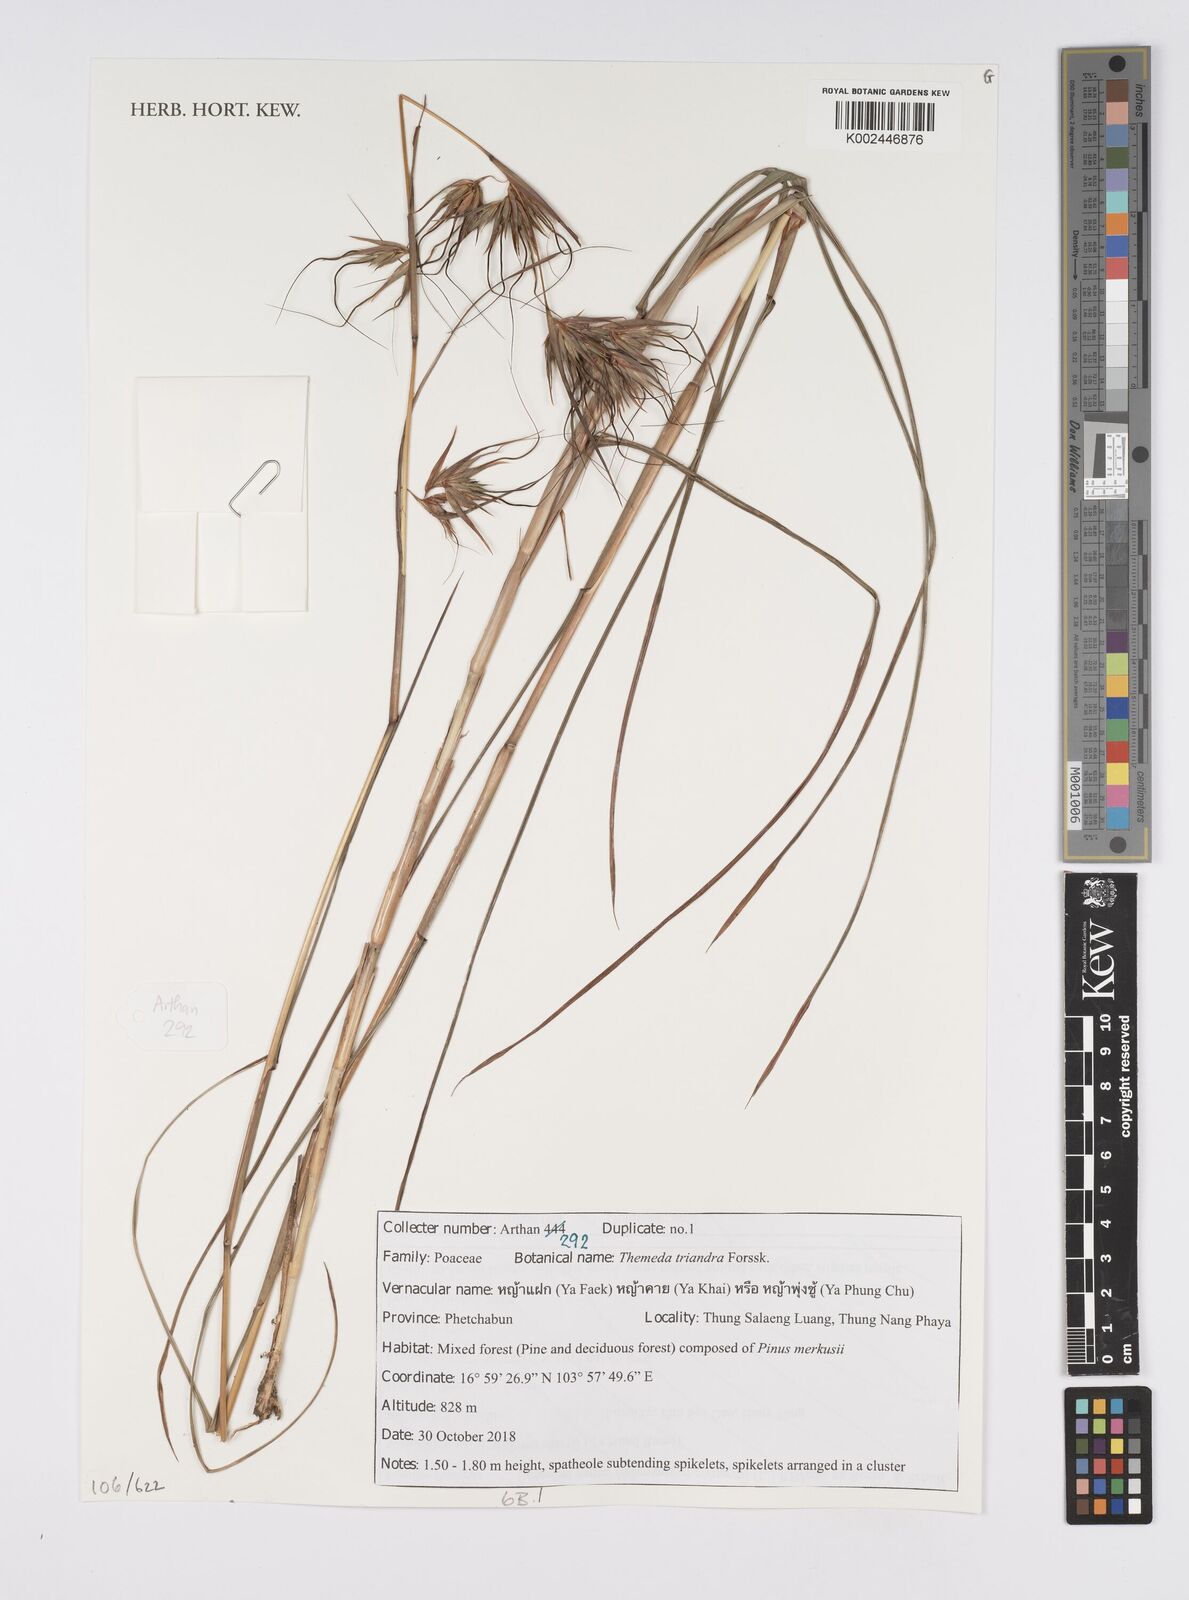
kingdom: Plantae
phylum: Tracheophyta
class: Liliopsida
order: Poales
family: Poaceae
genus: Themeda
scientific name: Themeda triandra
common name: Kangaroo grass
